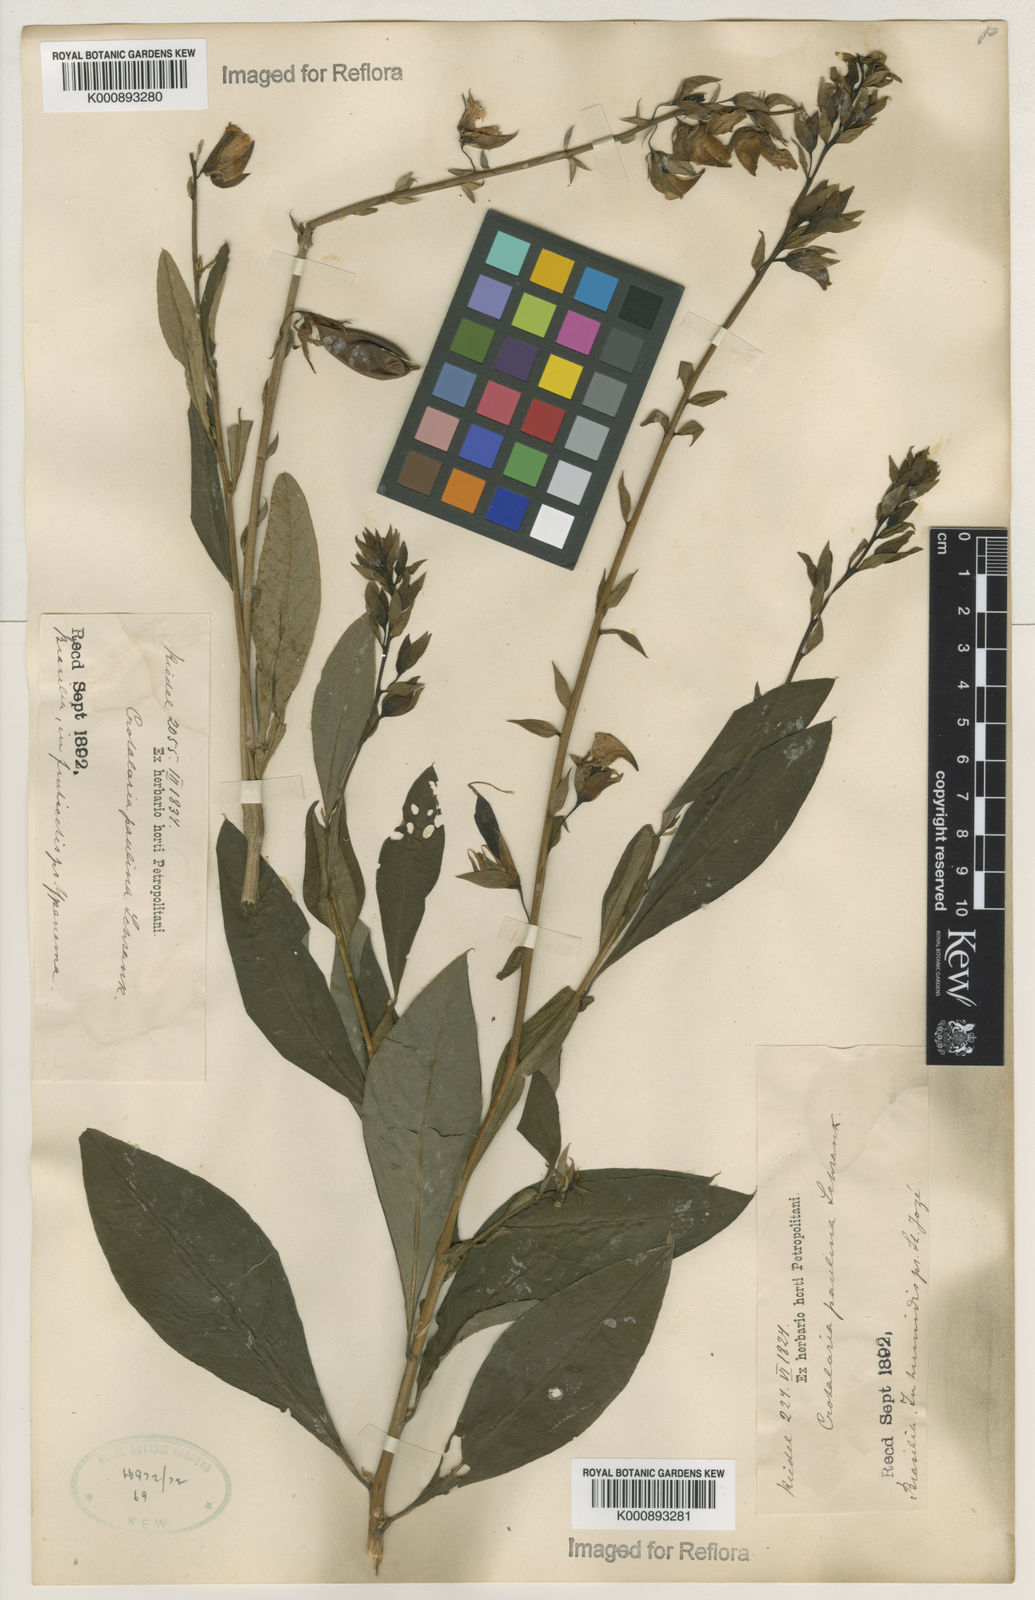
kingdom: Plantae
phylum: Tracheophyta
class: Magnoliopsida
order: Fabales
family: Fabaceae
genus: Crotalaria
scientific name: Crotalaria paulina
